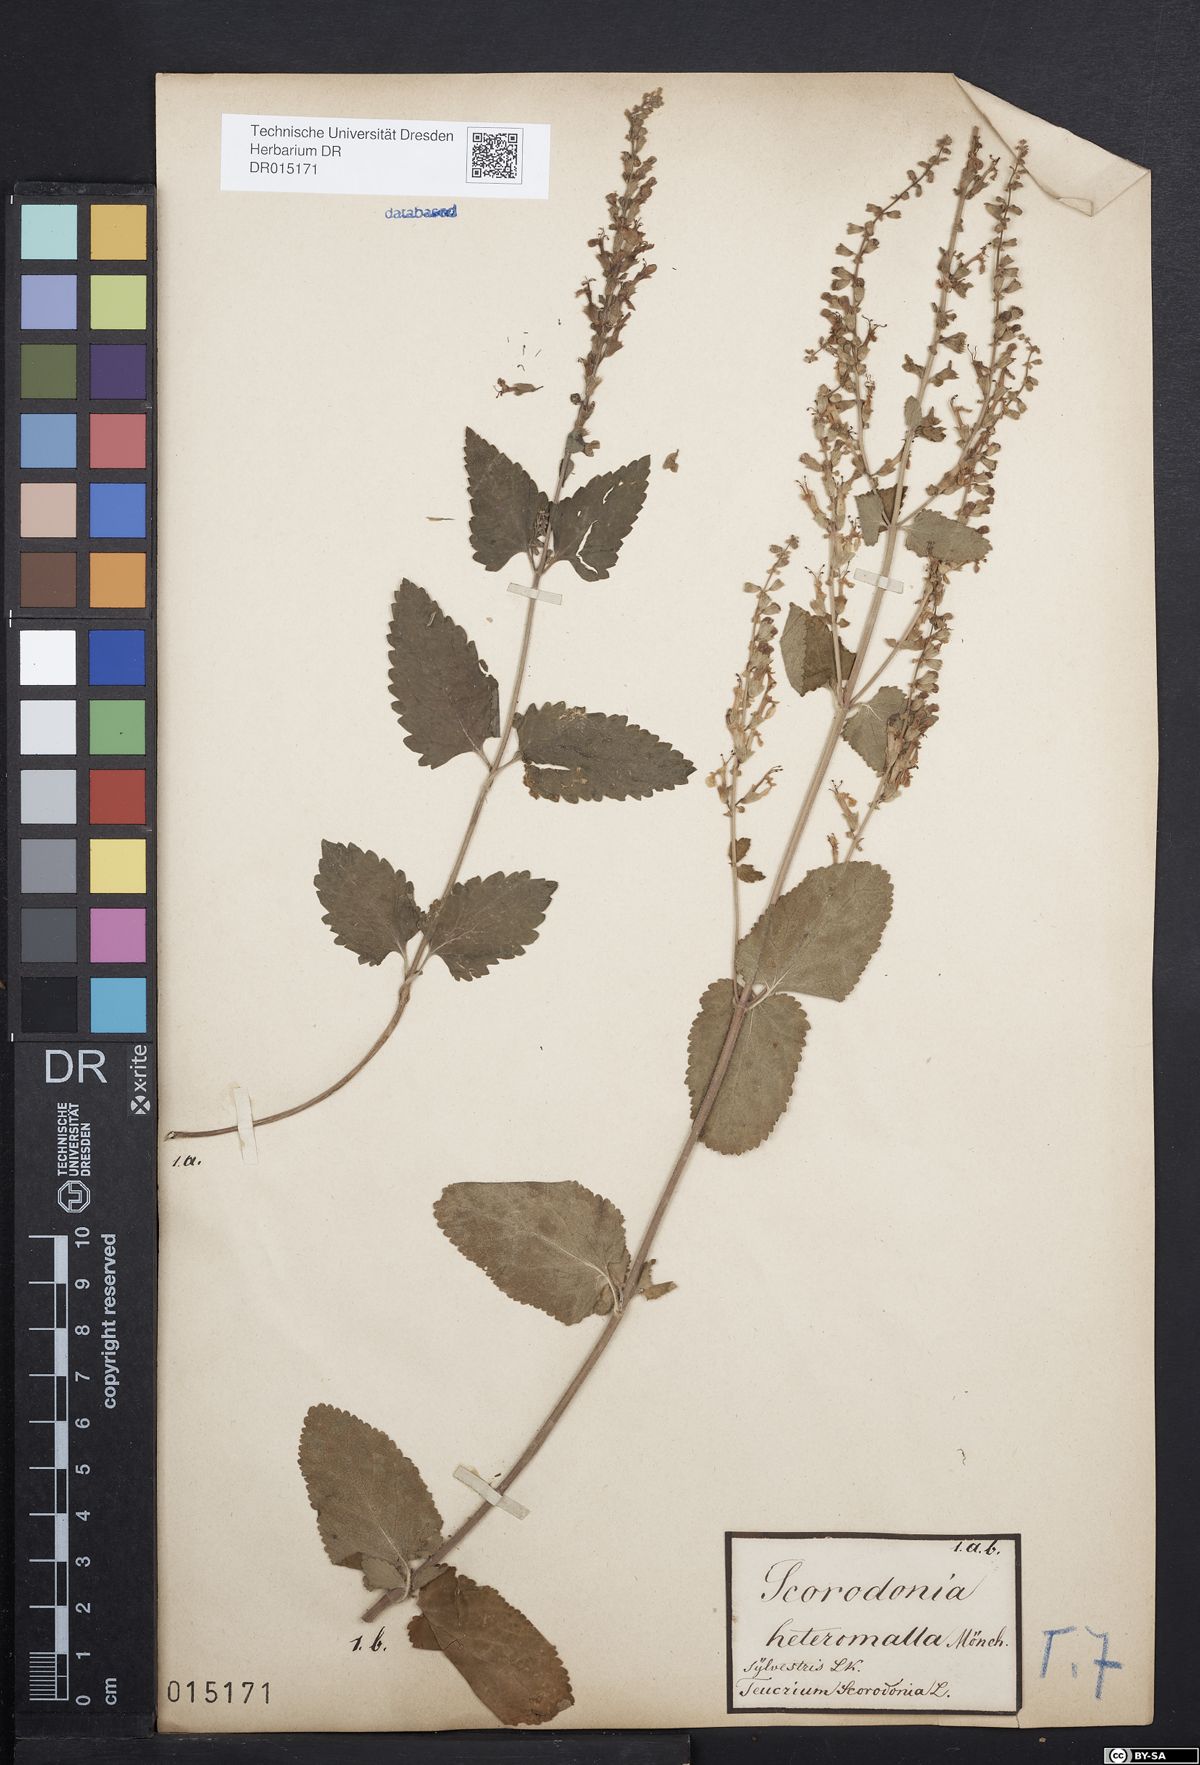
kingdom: Plantae
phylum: Tracheophyta
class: Magnoliopsida
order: Lamiales
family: Lamiaceae
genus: Teucrium
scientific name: Teucrium scorodonia
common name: Woodland germander
